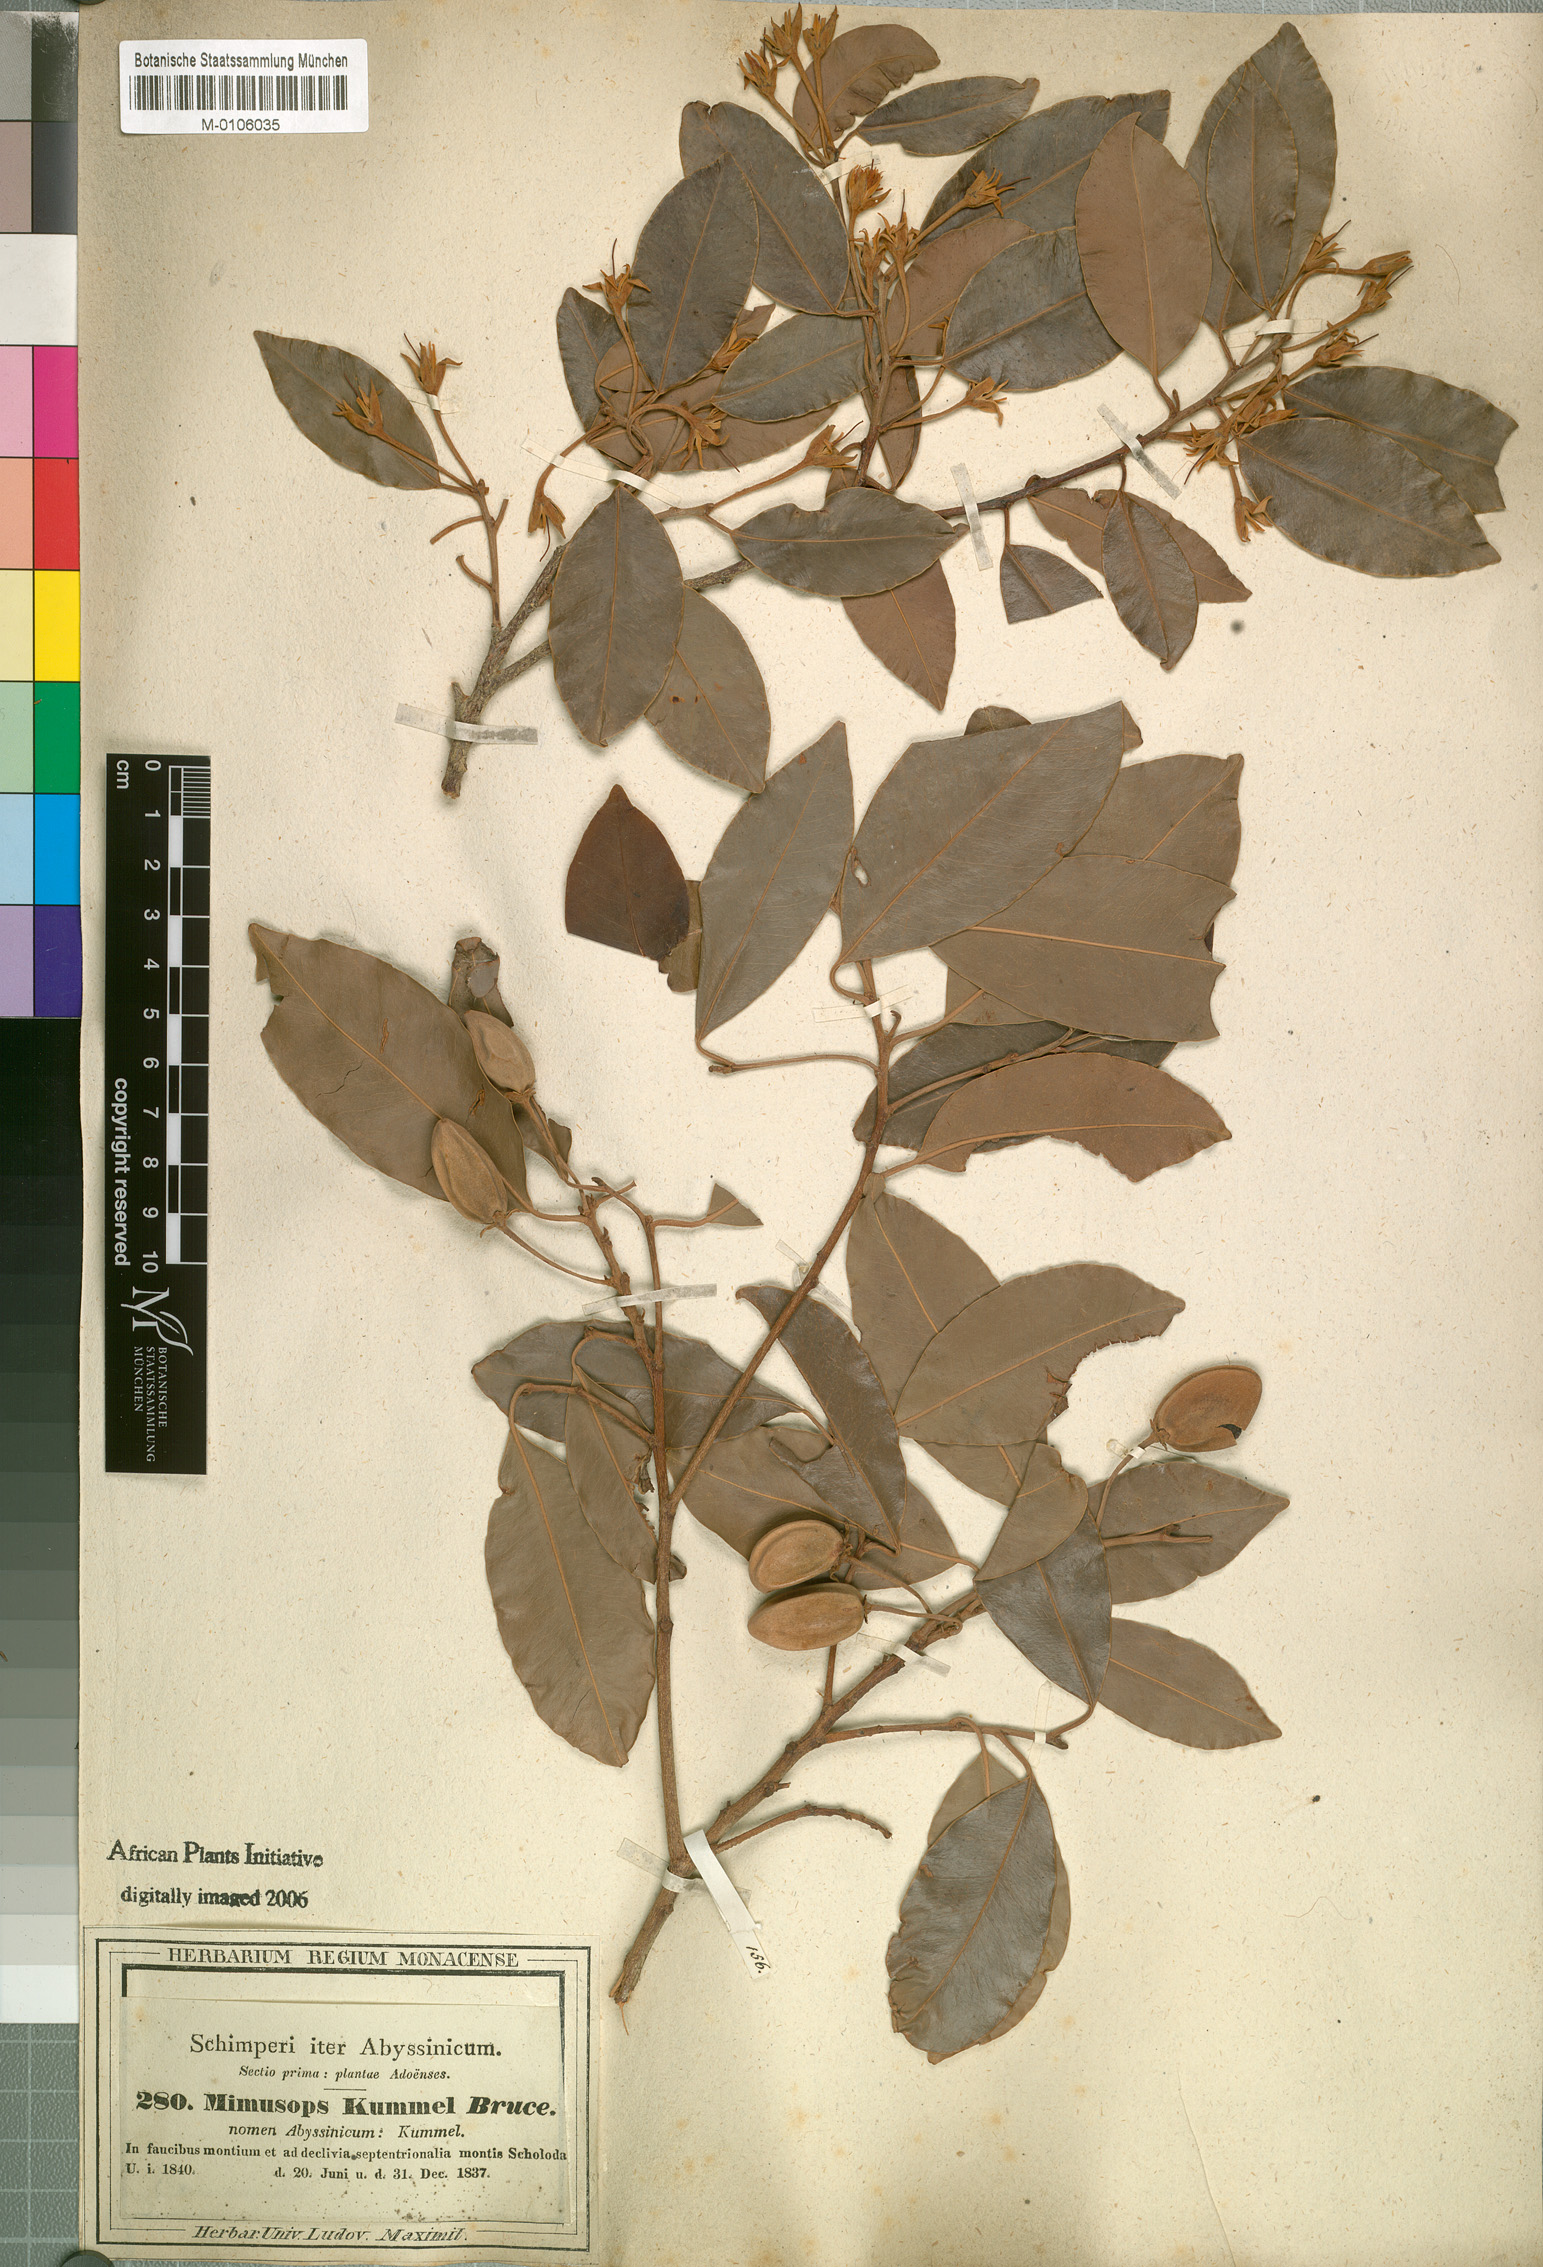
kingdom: Plantae
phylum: Tracheophyta
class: Magnoliopsida
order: Ericales
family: Sapotaceae
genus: Mimusops
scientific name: Mimusops kummel
